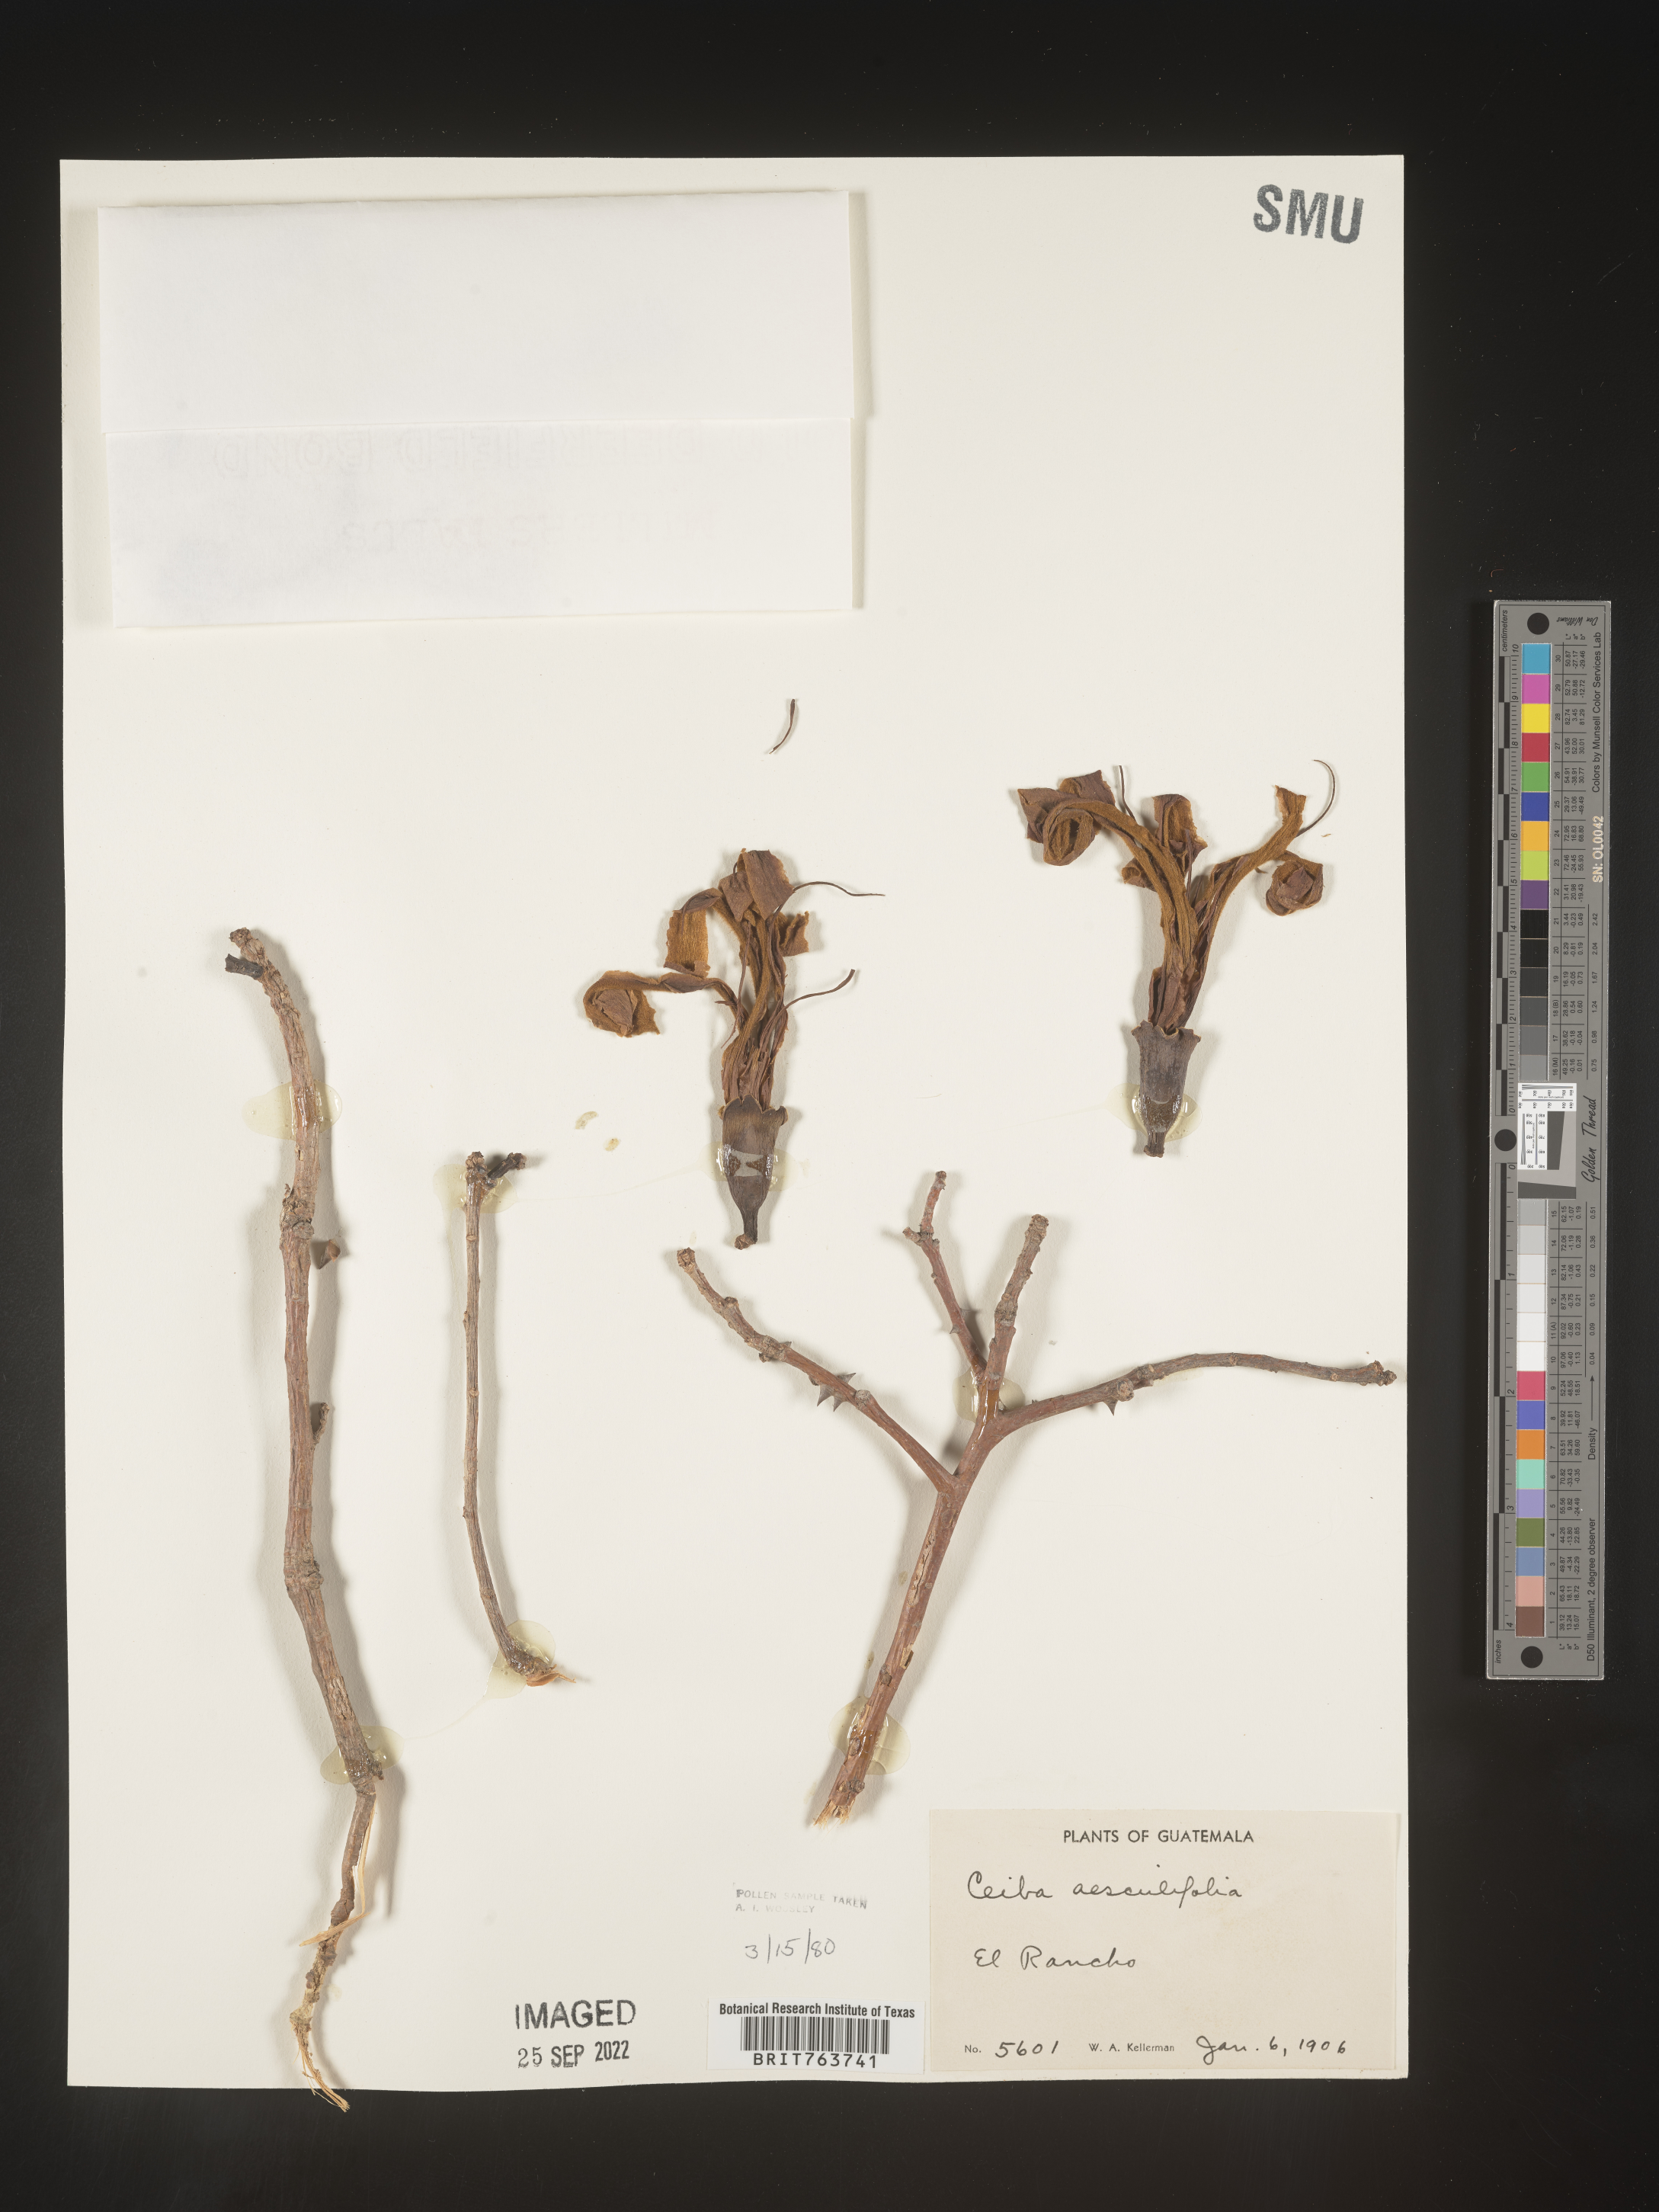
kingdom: Plantae
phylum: Tracheophyta
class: Magnoliopsida
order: Malvales
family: Malvaceae
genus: Ceiba
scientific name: Ceiba
